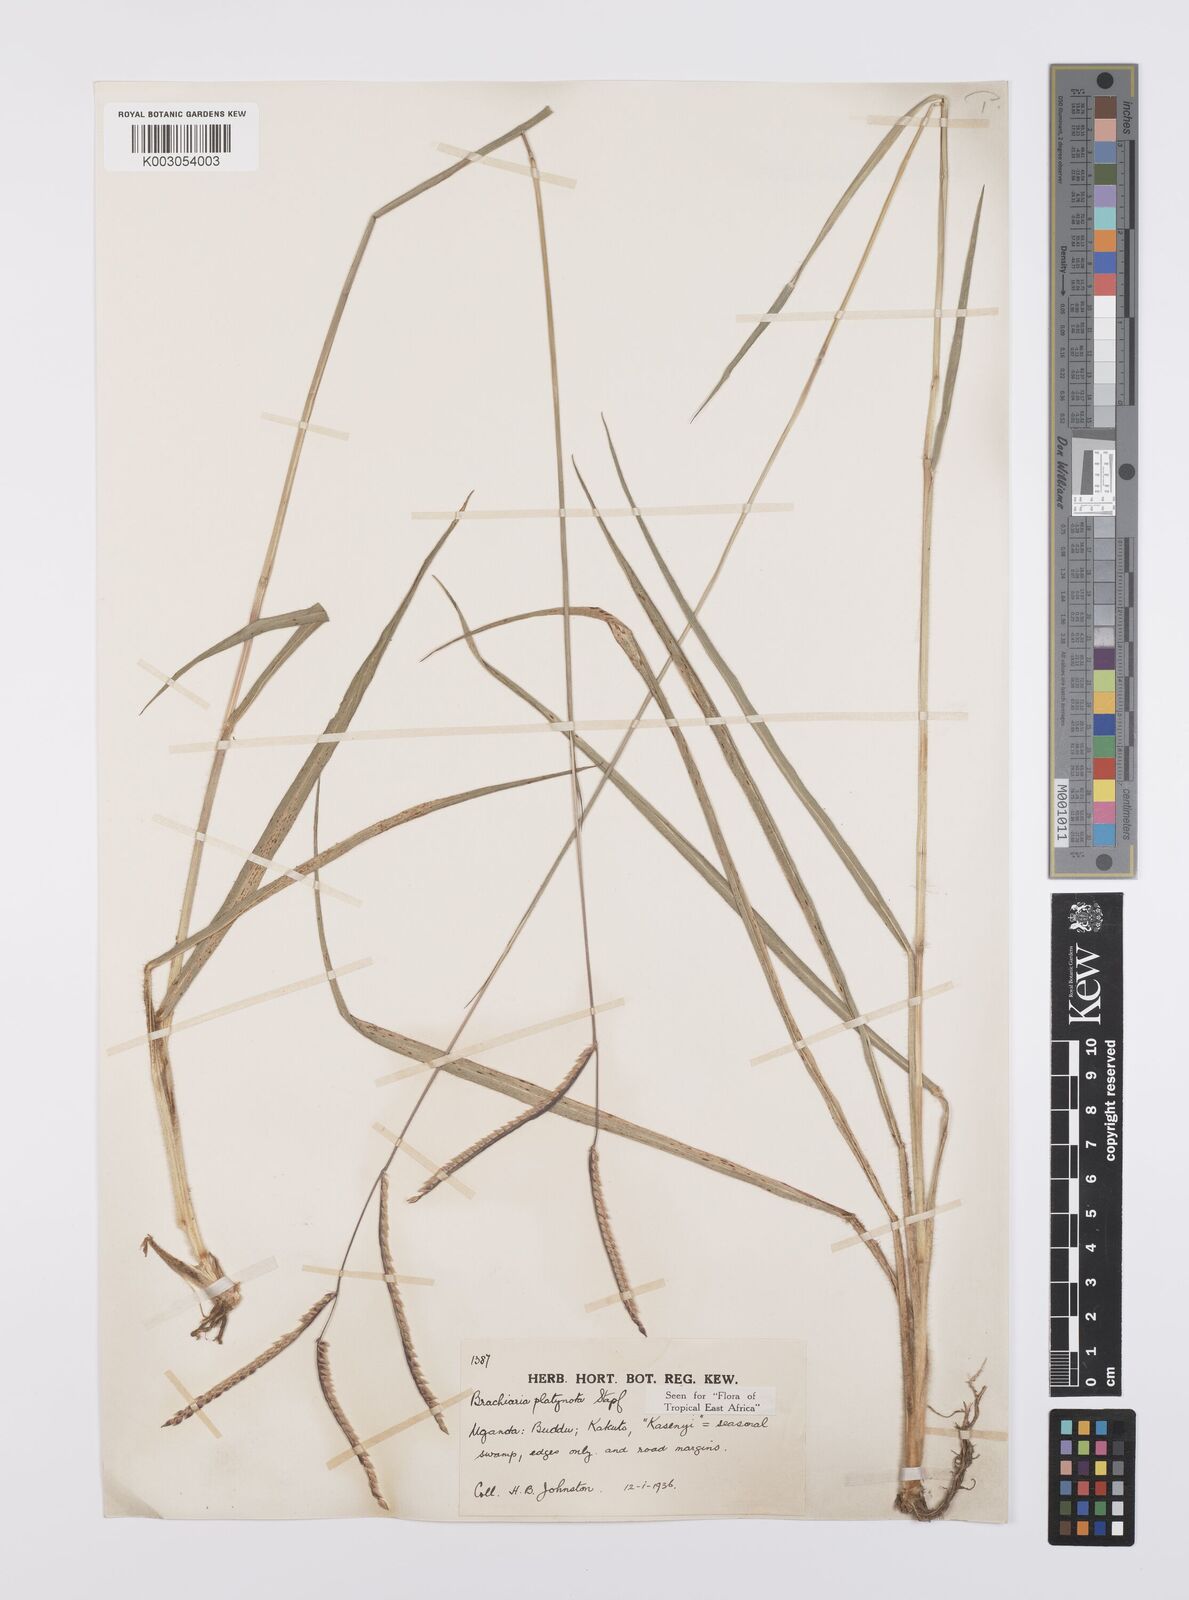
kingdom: Plantae
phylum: Tracheophyta
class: Liliopsida
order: Poales
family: Poaceae
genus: Urochloa
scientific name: Urochloa platynota
